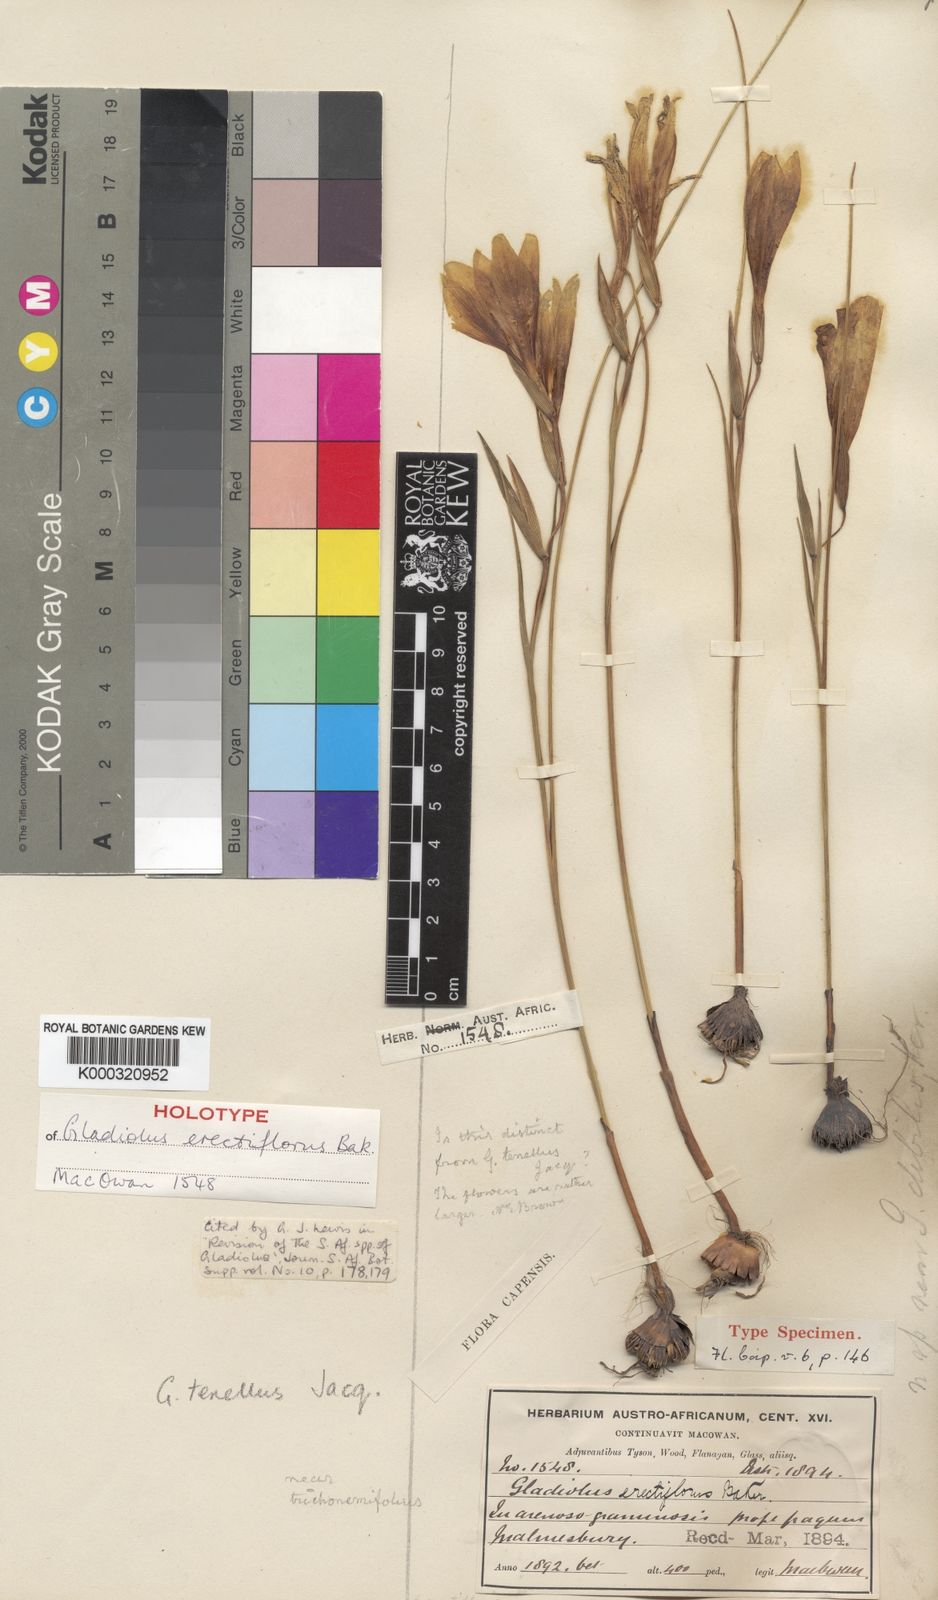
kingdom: Plantae
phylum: Tracheophyta
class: Liliopsida
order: Asparagales
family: Iridaceae
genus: Gladiolus
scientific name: Gladiolus trichonemifolius
